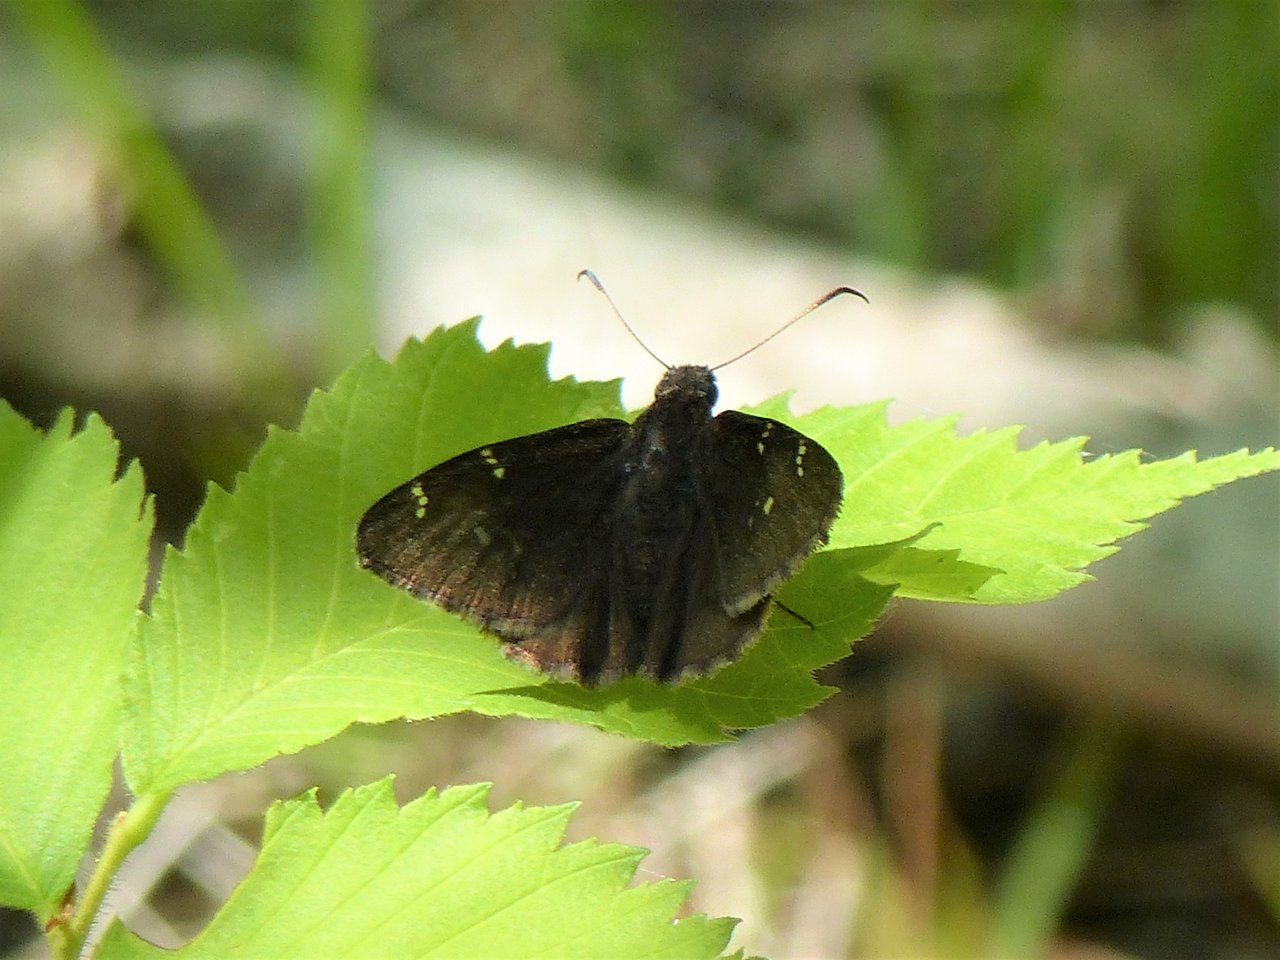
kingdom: Animalia
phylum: Arthropoda
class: Insecta
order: Lepidoptera
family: Hesperiidae
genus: Autochton
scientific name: Autochton
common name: Northern Cloudywing
